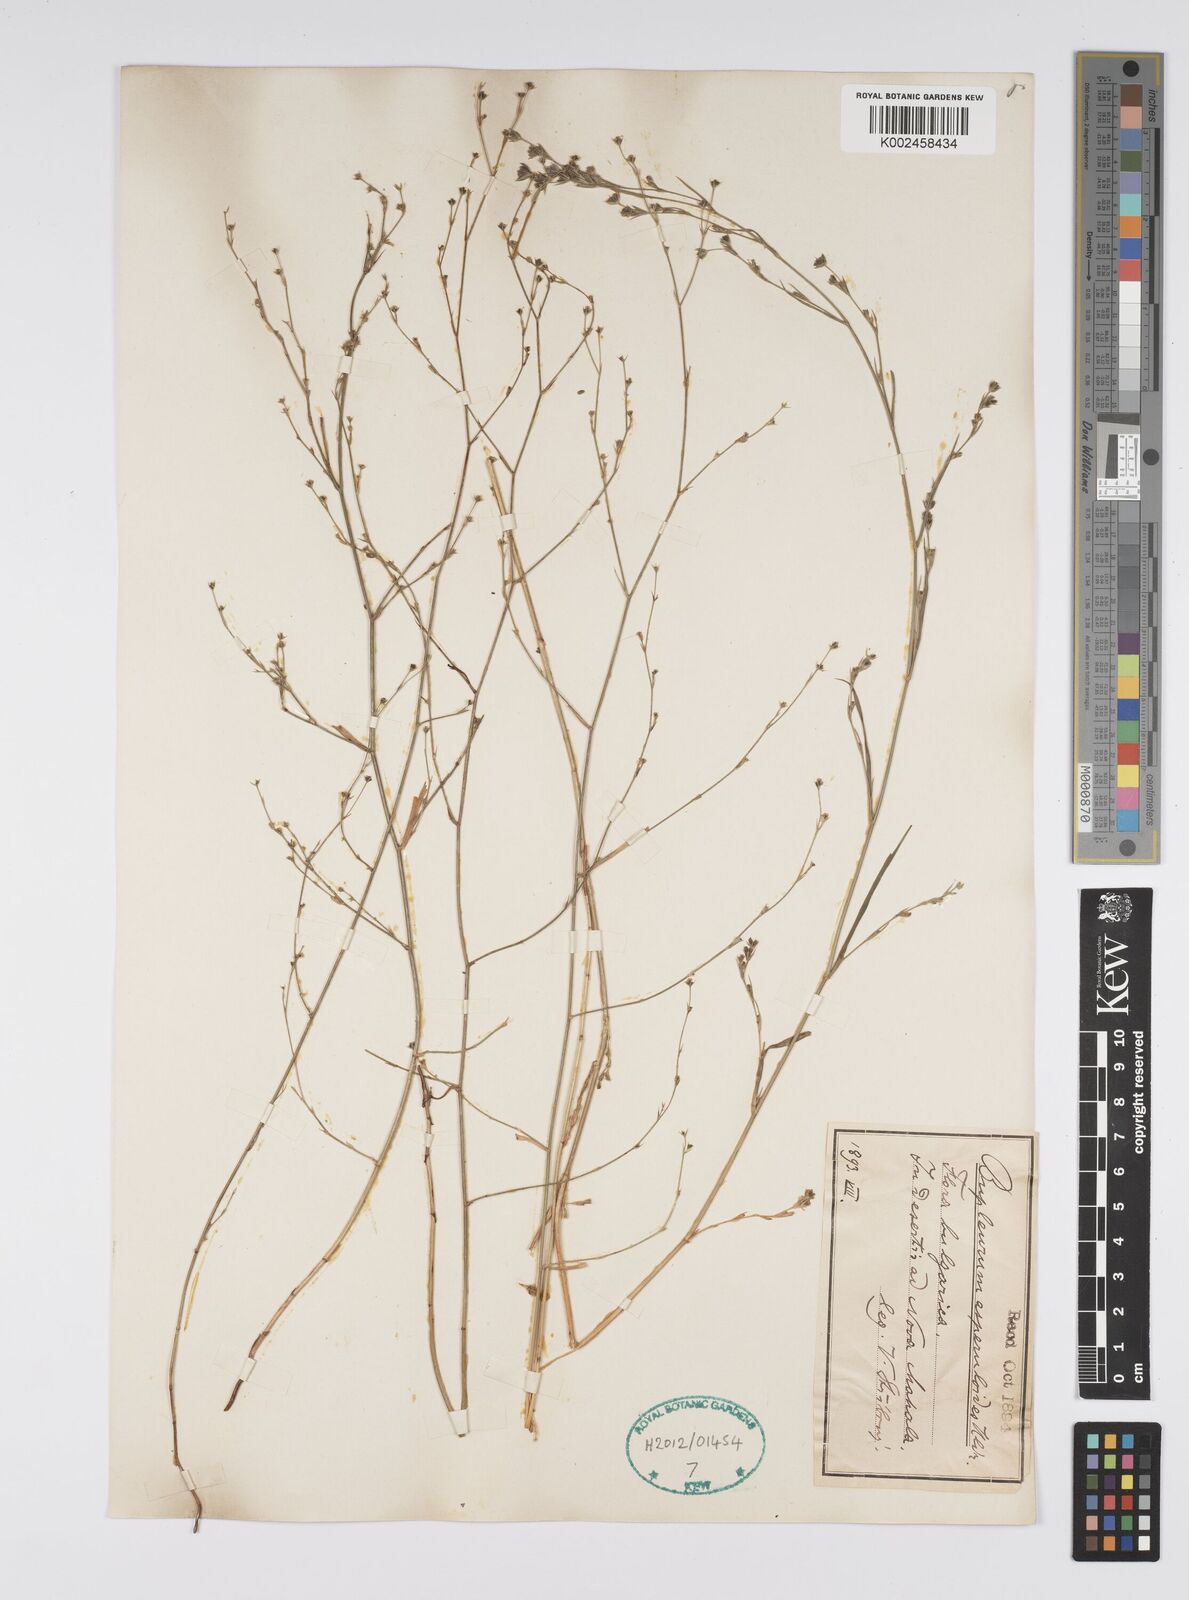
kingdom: Plantae
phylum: Tracheophyta
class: Magnoliopsida
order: Apiales
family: Apiaceae
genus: Bupleurum
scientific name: Bupleurum asperuloides
